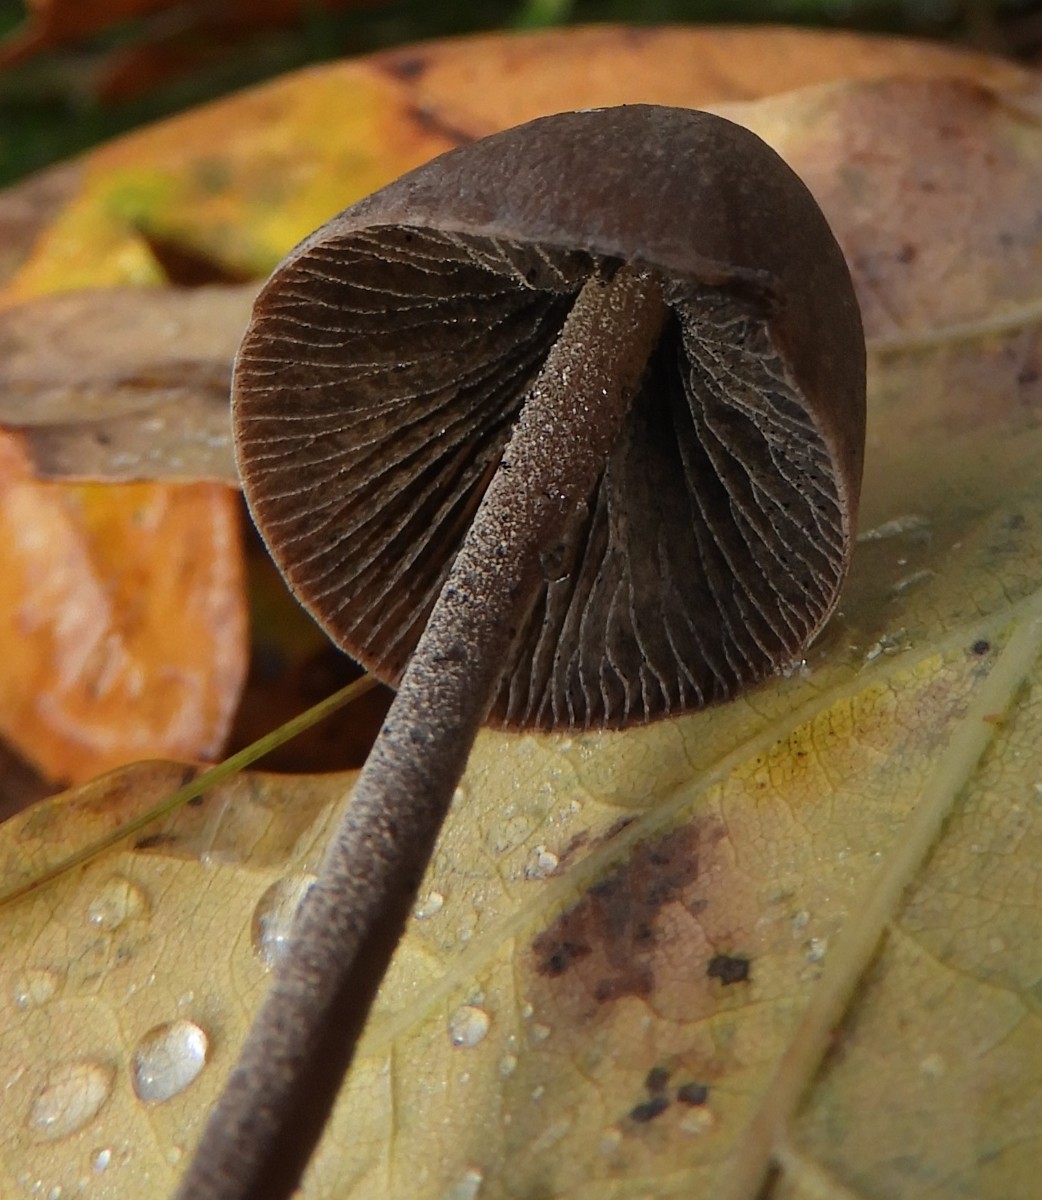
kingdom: Fungi
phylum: Basidiomycota
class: Agaricomycetes
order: Agaricales
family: Bolbitiaceae
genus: Panaeolus
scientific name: Panaeolus acuminatus
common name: høj glanshat
